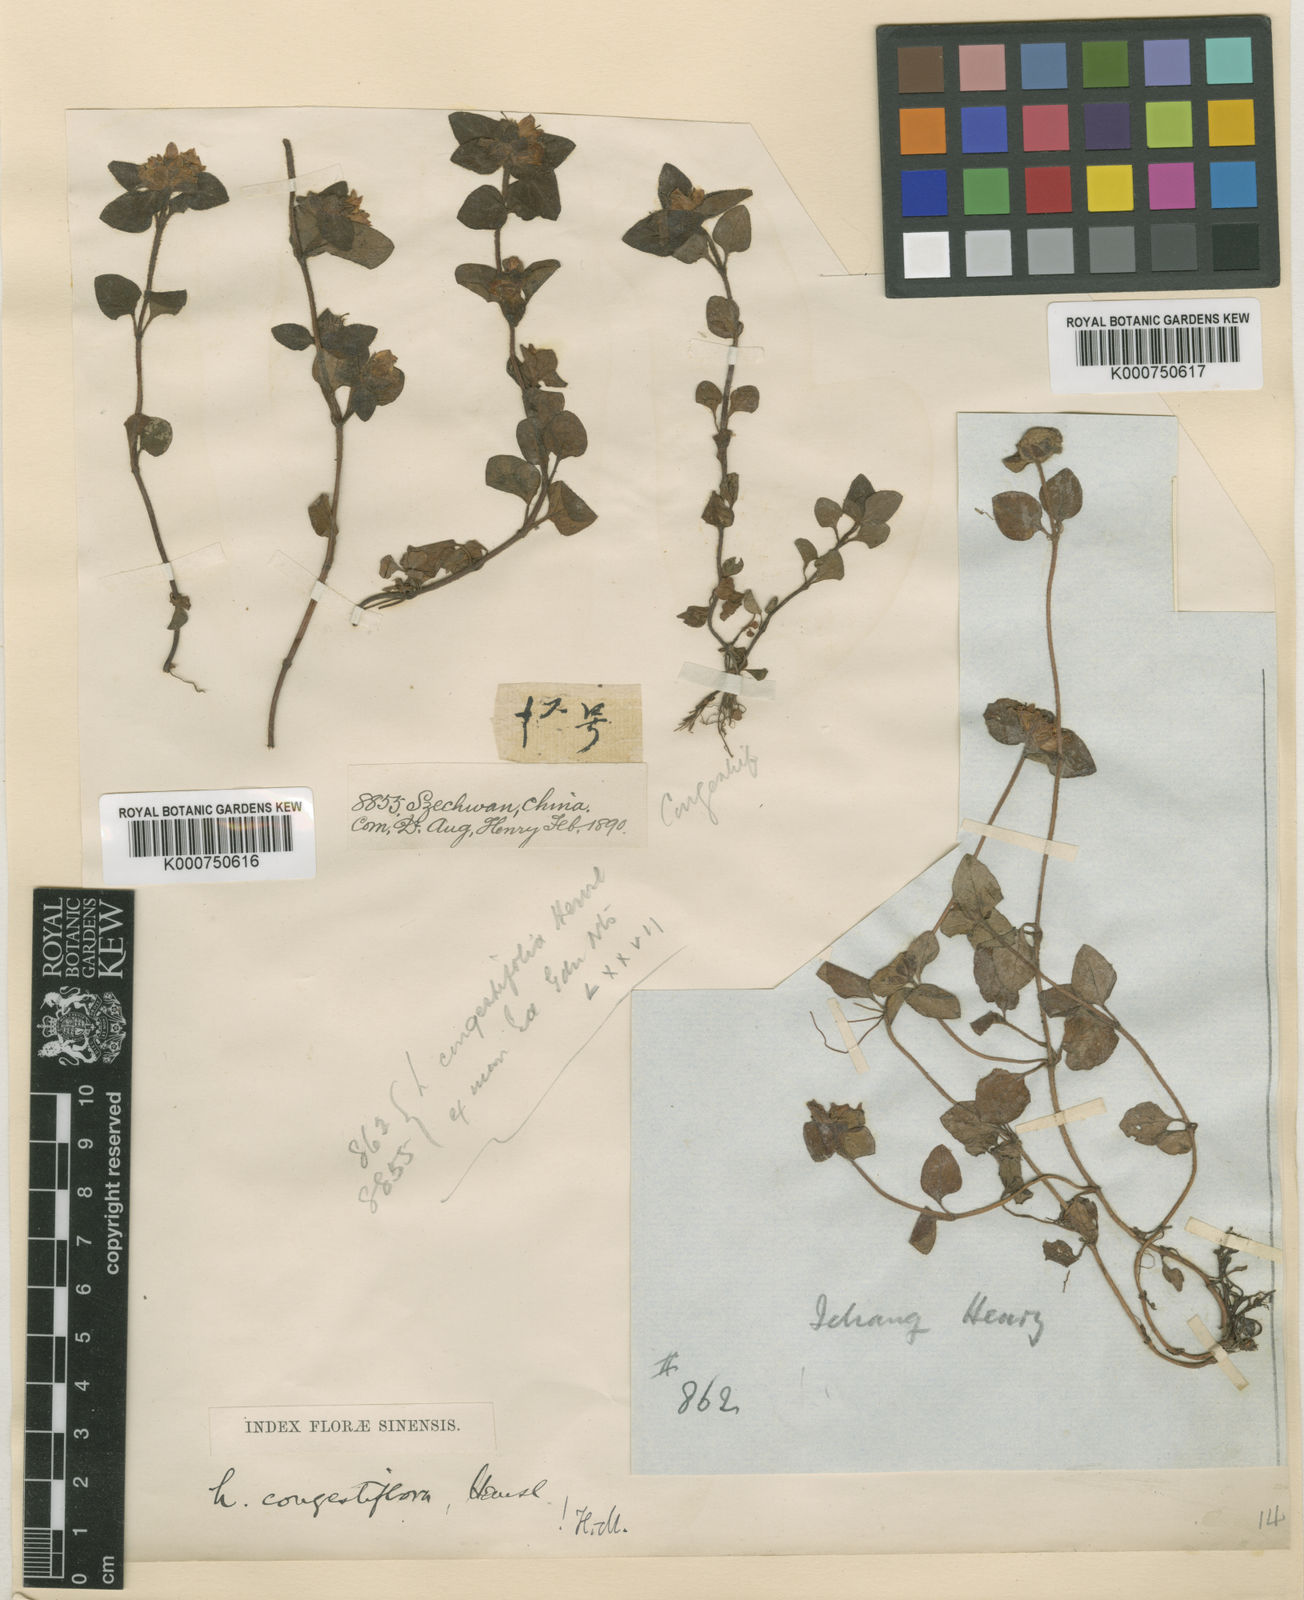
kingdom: Plantae
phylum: Tracheophyta
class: Magnoliopsida
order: Ericales
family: Primulaceae
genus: Lysimachia
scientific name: Lysimachia congestiflora
